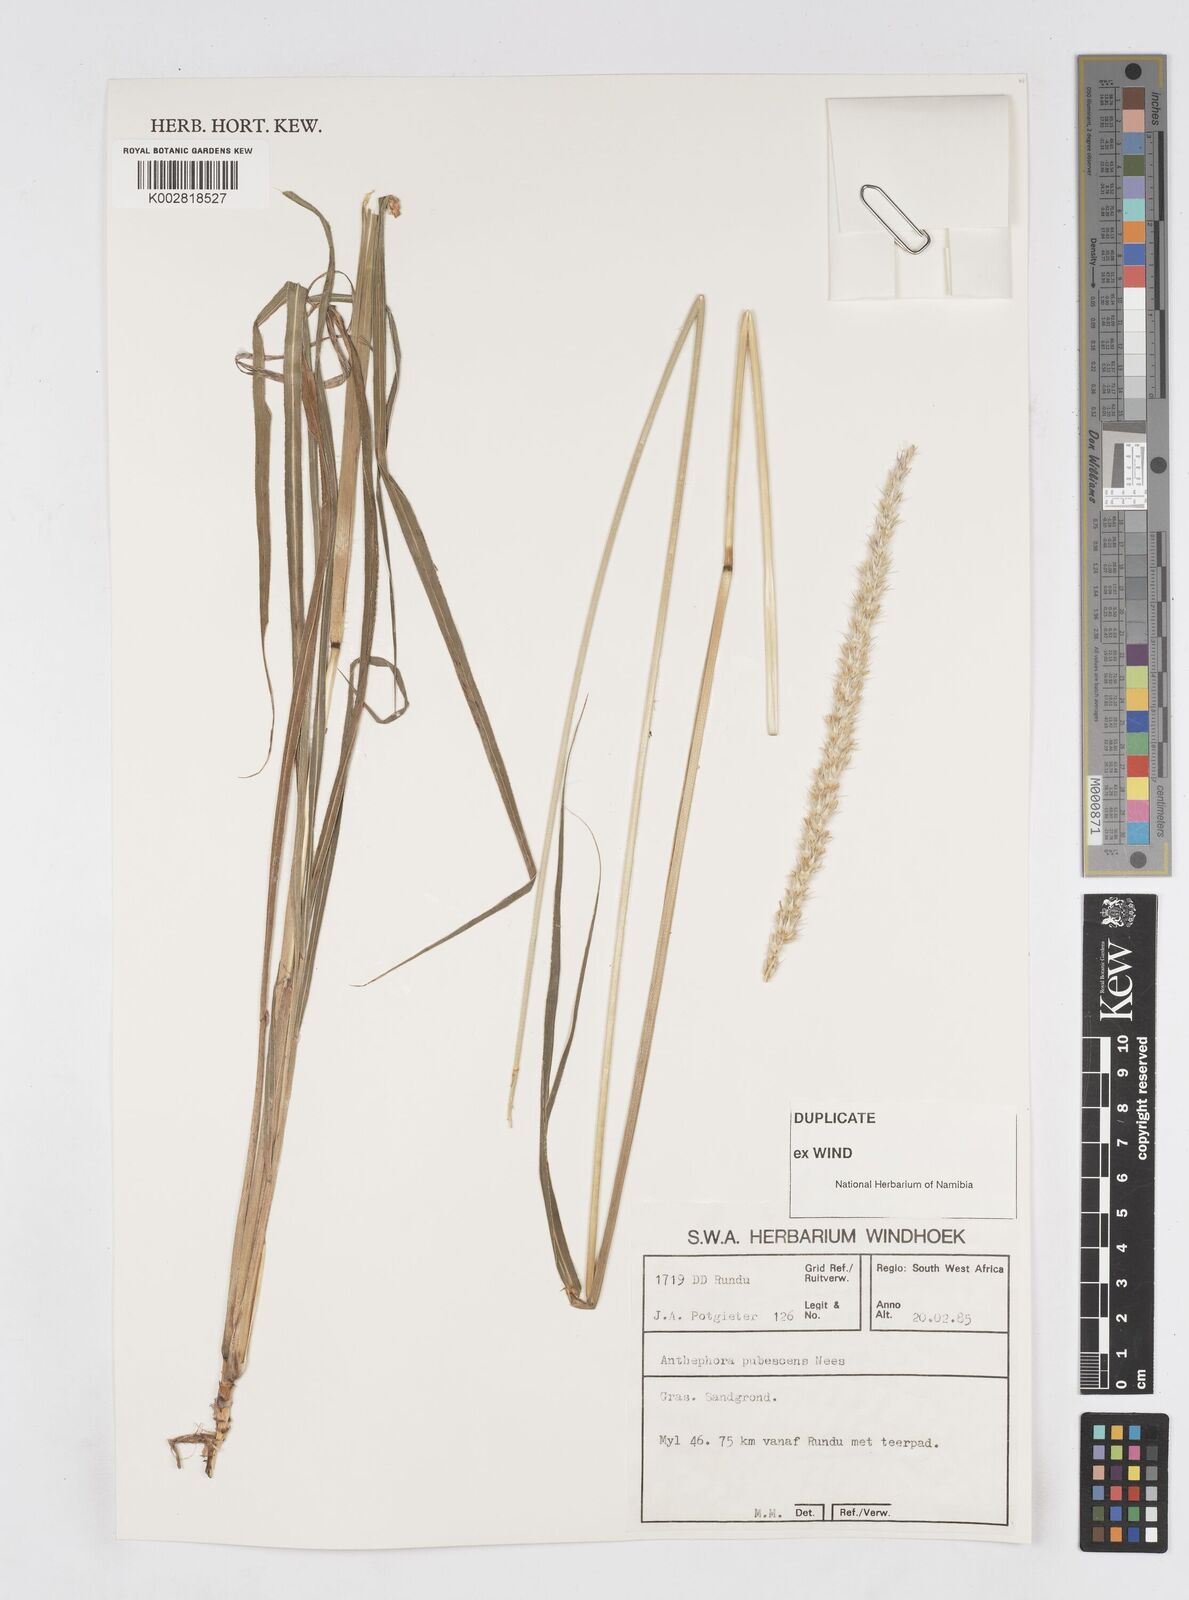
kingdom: Plantae
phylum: Tracheophyta
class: Liliopsida
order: Poales
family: Poaceae
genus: Anthephora
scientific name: Anthephora pubescens
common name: Wool grass
